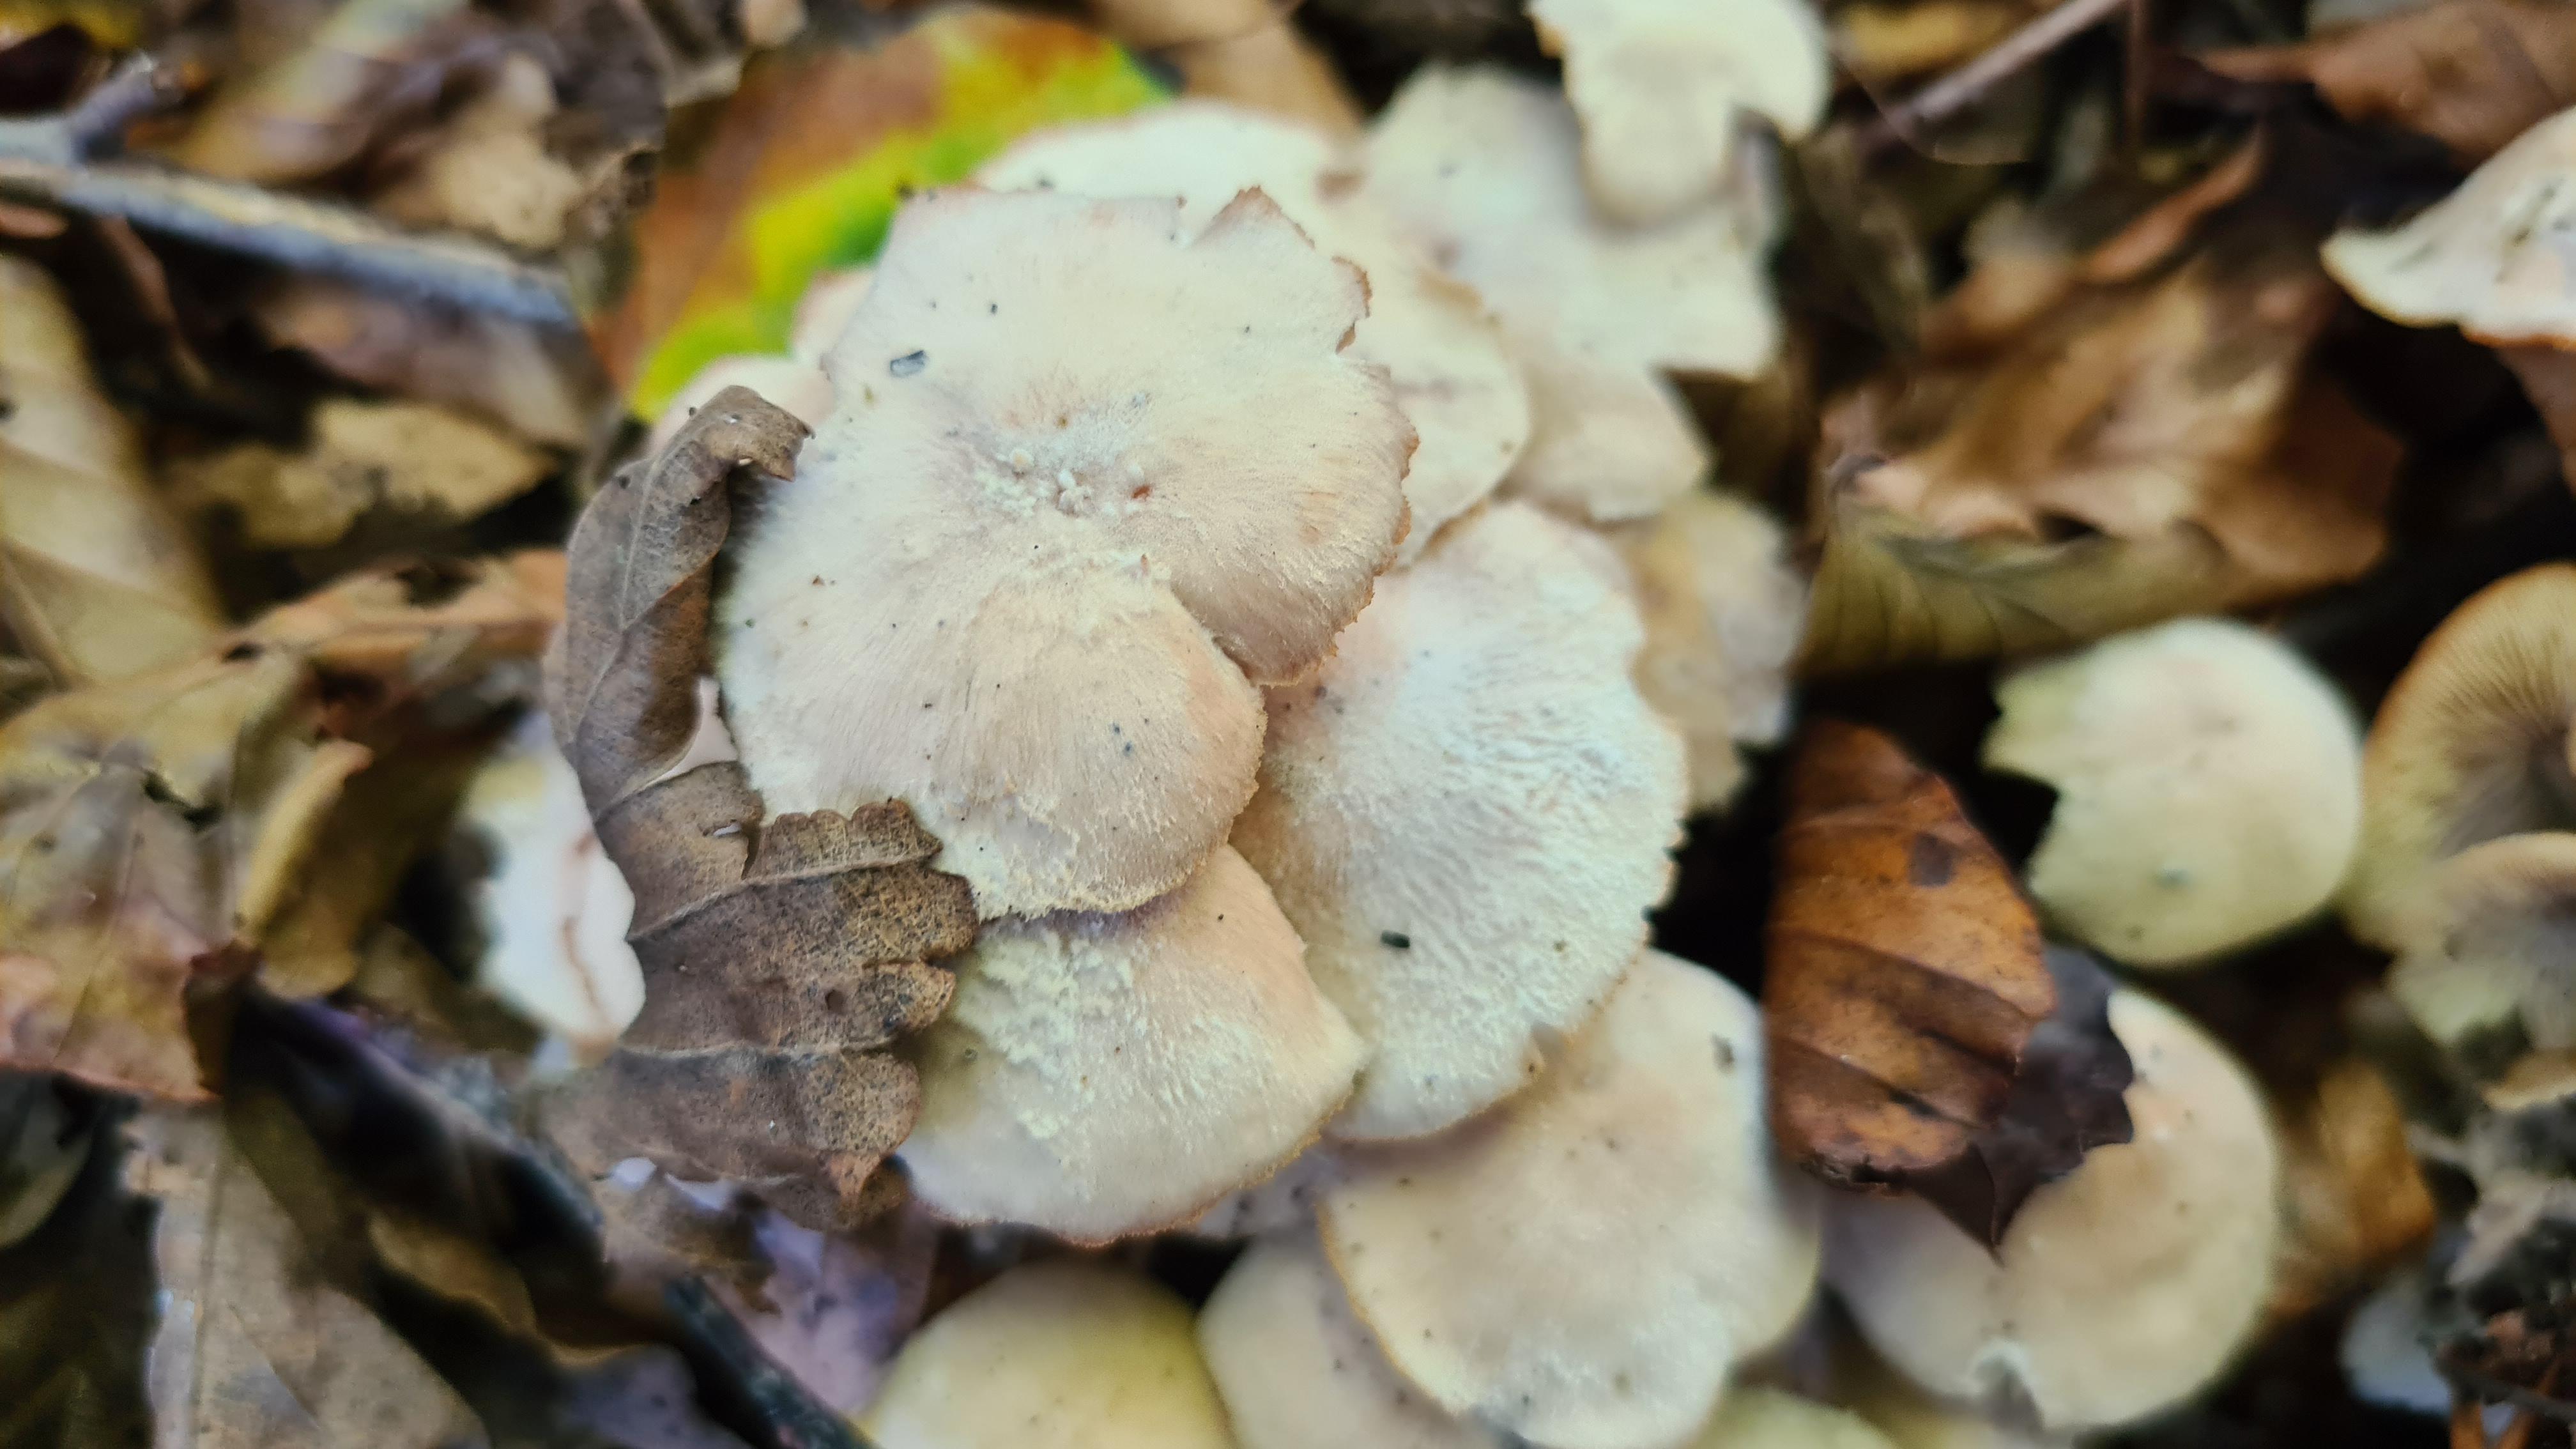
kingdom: Fungi
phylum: Basidiomycota
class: Agaricomycetes
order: Agaricales
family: Omphalotaceae
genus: Collybiopsis
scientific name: Collybiopsis confluens
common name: knippe-fladhat
